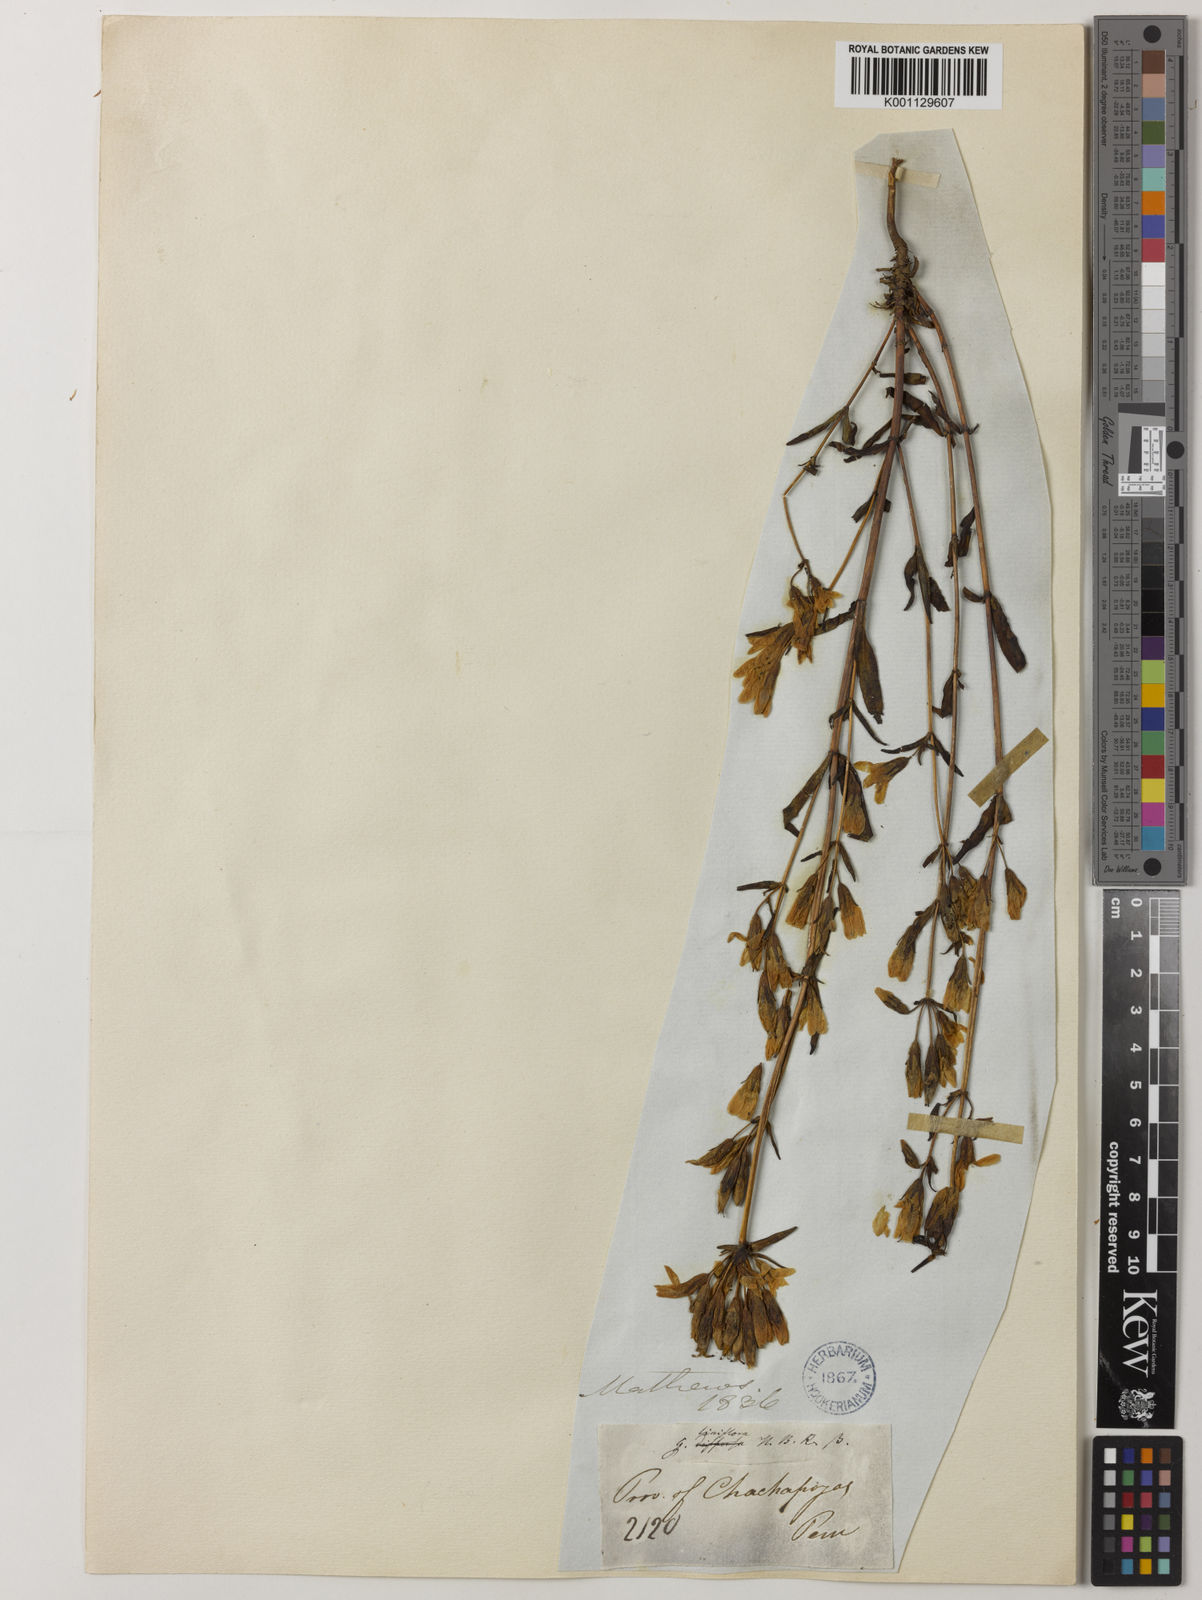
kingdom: Plantae
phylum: Tracheophyta
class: Magnoliopsida
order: Gentianales
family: Gentianaceae
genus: Gentianella
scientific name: Gentianella liniflora
